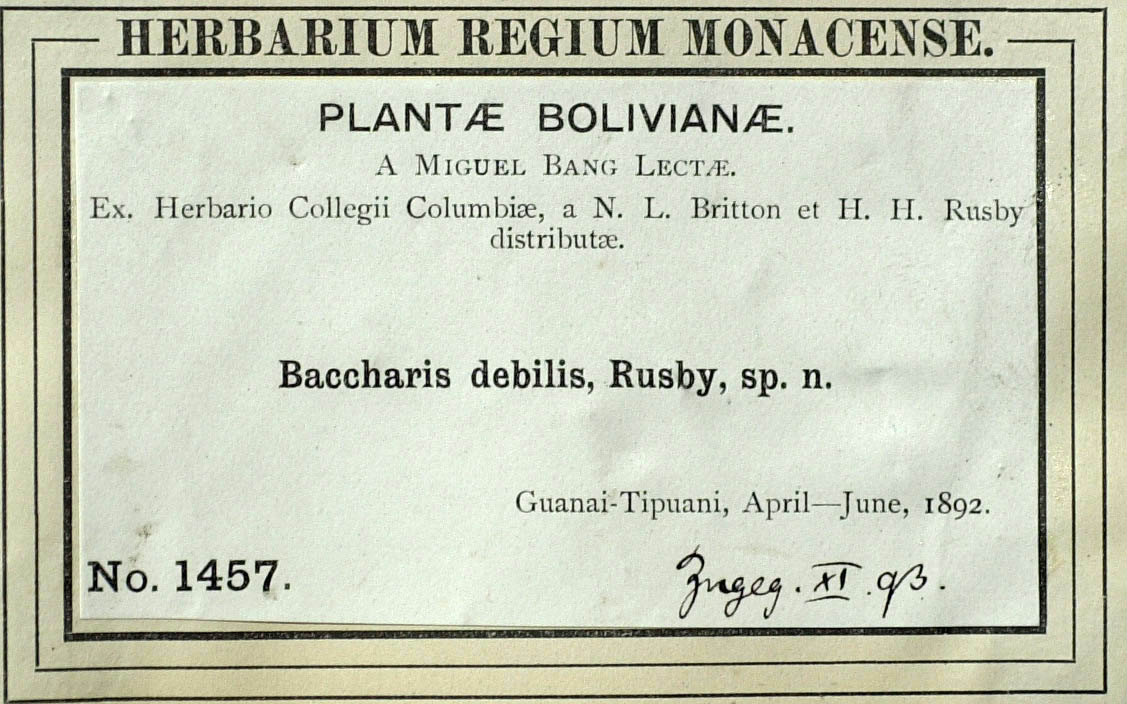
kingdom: Plantae
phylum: Tracheophyta
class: Magnoliopsida
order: Asterales
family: Asteraceae
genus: Baccharis
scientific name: Baccharis trinervis
